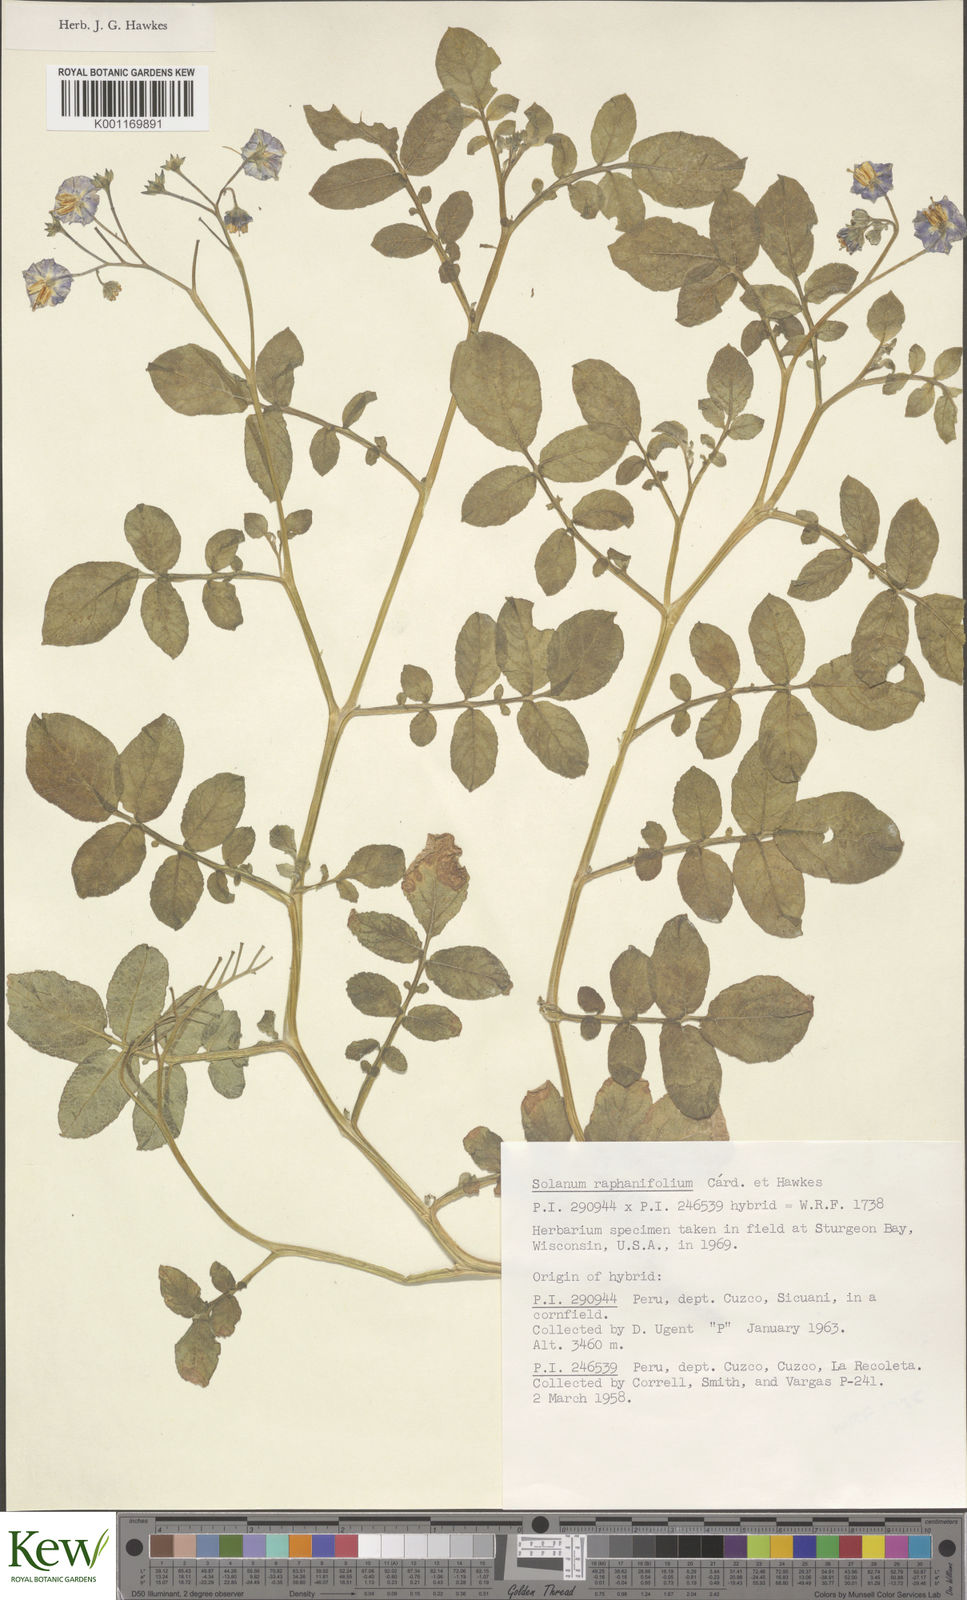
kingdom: Plantae
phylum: Tracheophyta
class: Magnoliopsida
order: Solanales
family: Solanaceae
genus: Solanum
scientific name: Solanum
